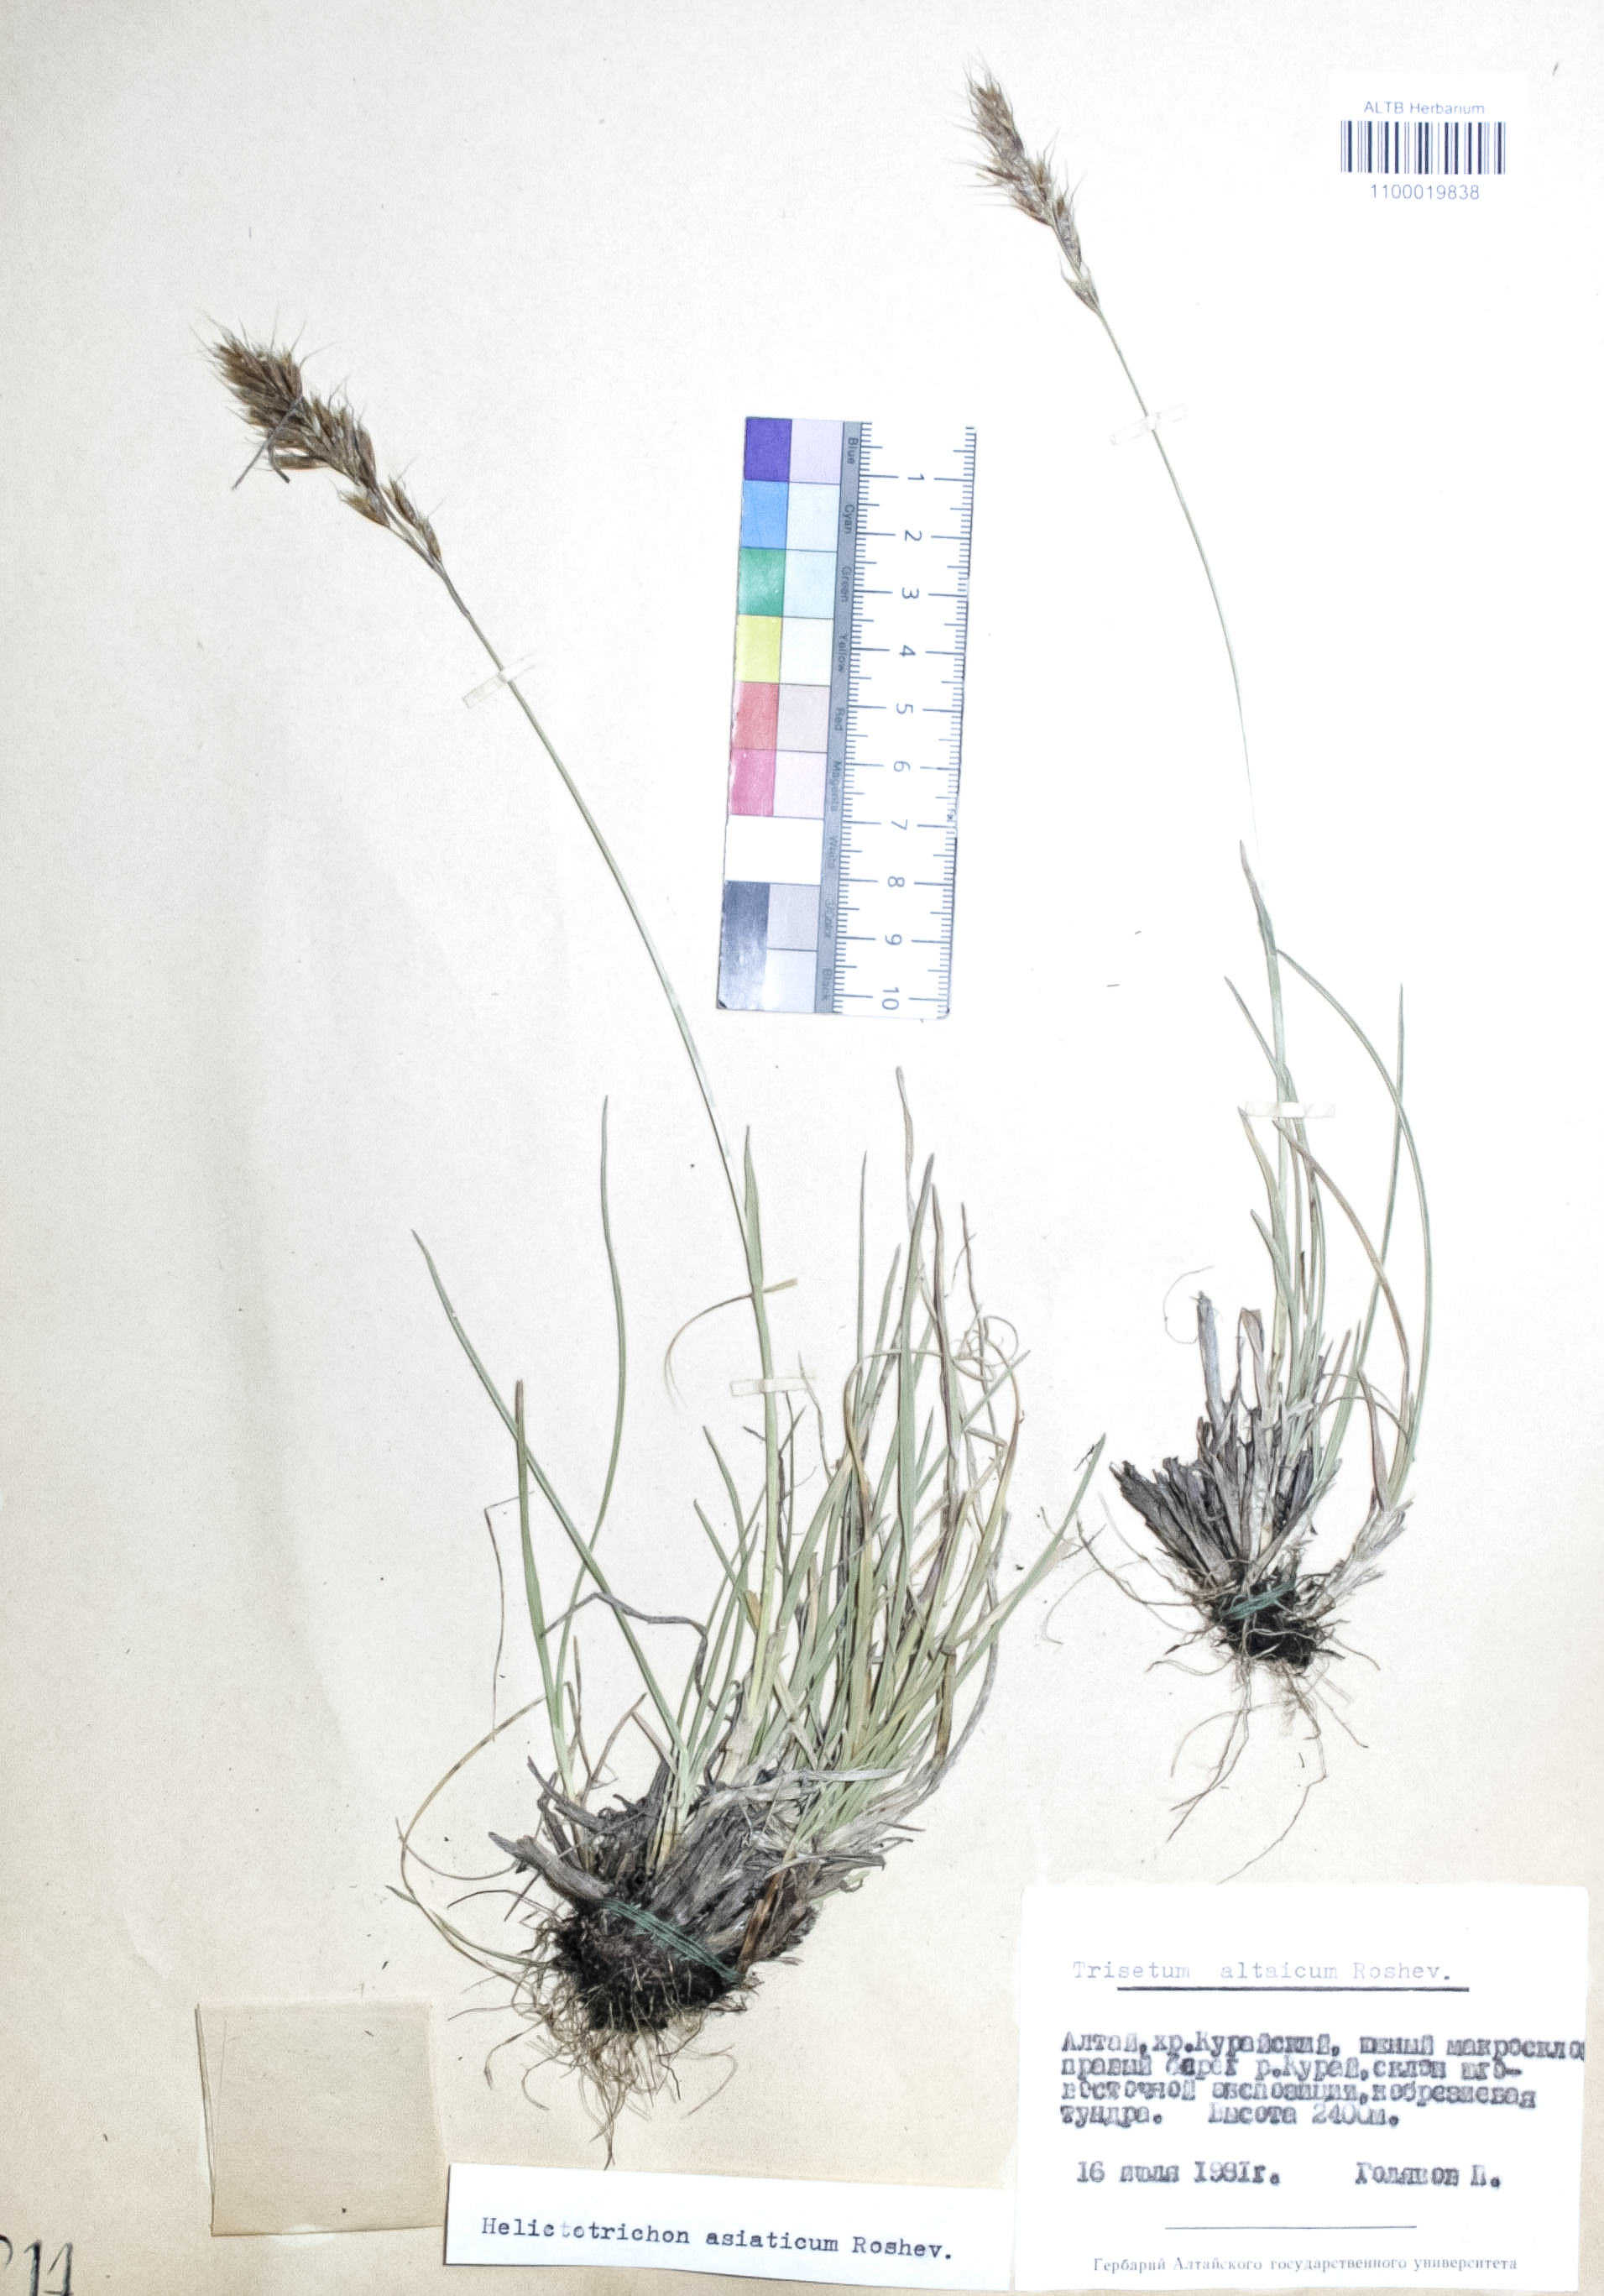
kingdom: Plantae
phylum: Tracheophyta
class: Liliopsida
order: Poales
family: Poaceae
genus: Trisetum
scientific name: Trisetum altaicum
